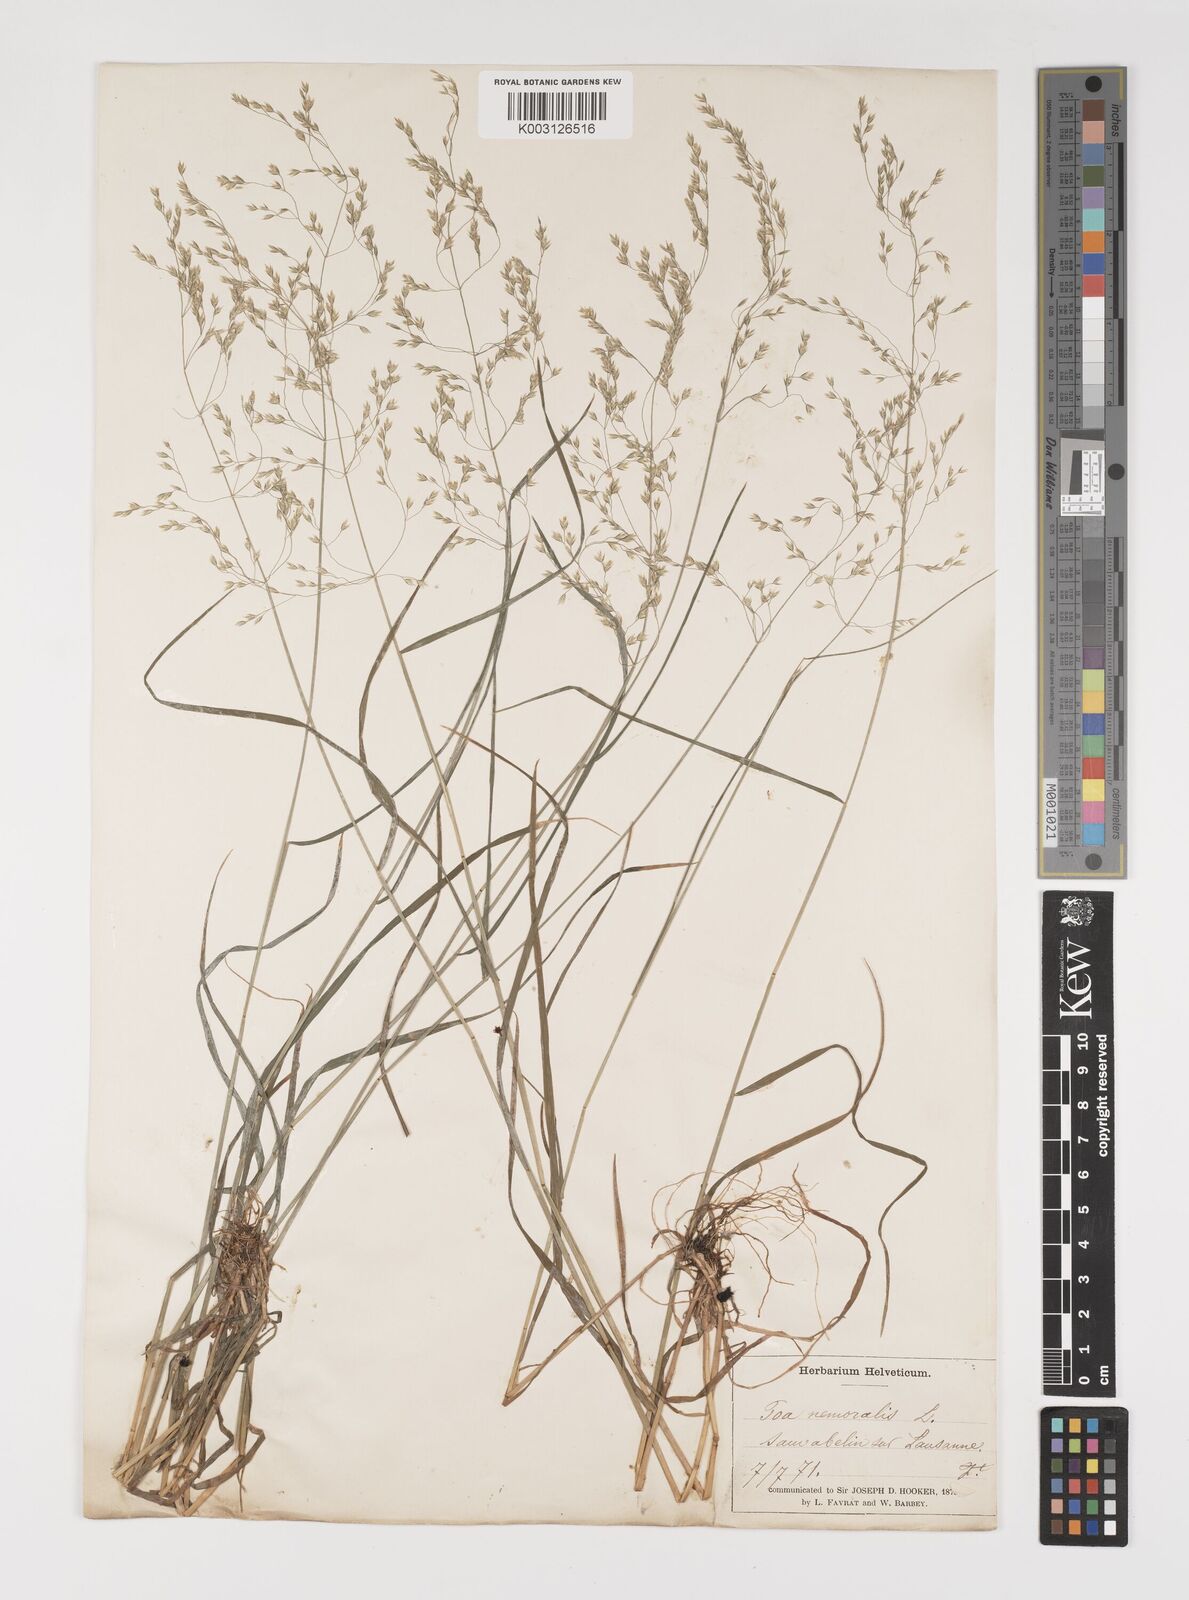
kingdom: Plantae
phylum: Tracheophyta
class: Liliopsida
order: Poales
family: Poaceae
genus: Poa
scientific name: Poa nemoralis
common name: Wood bluegrass
